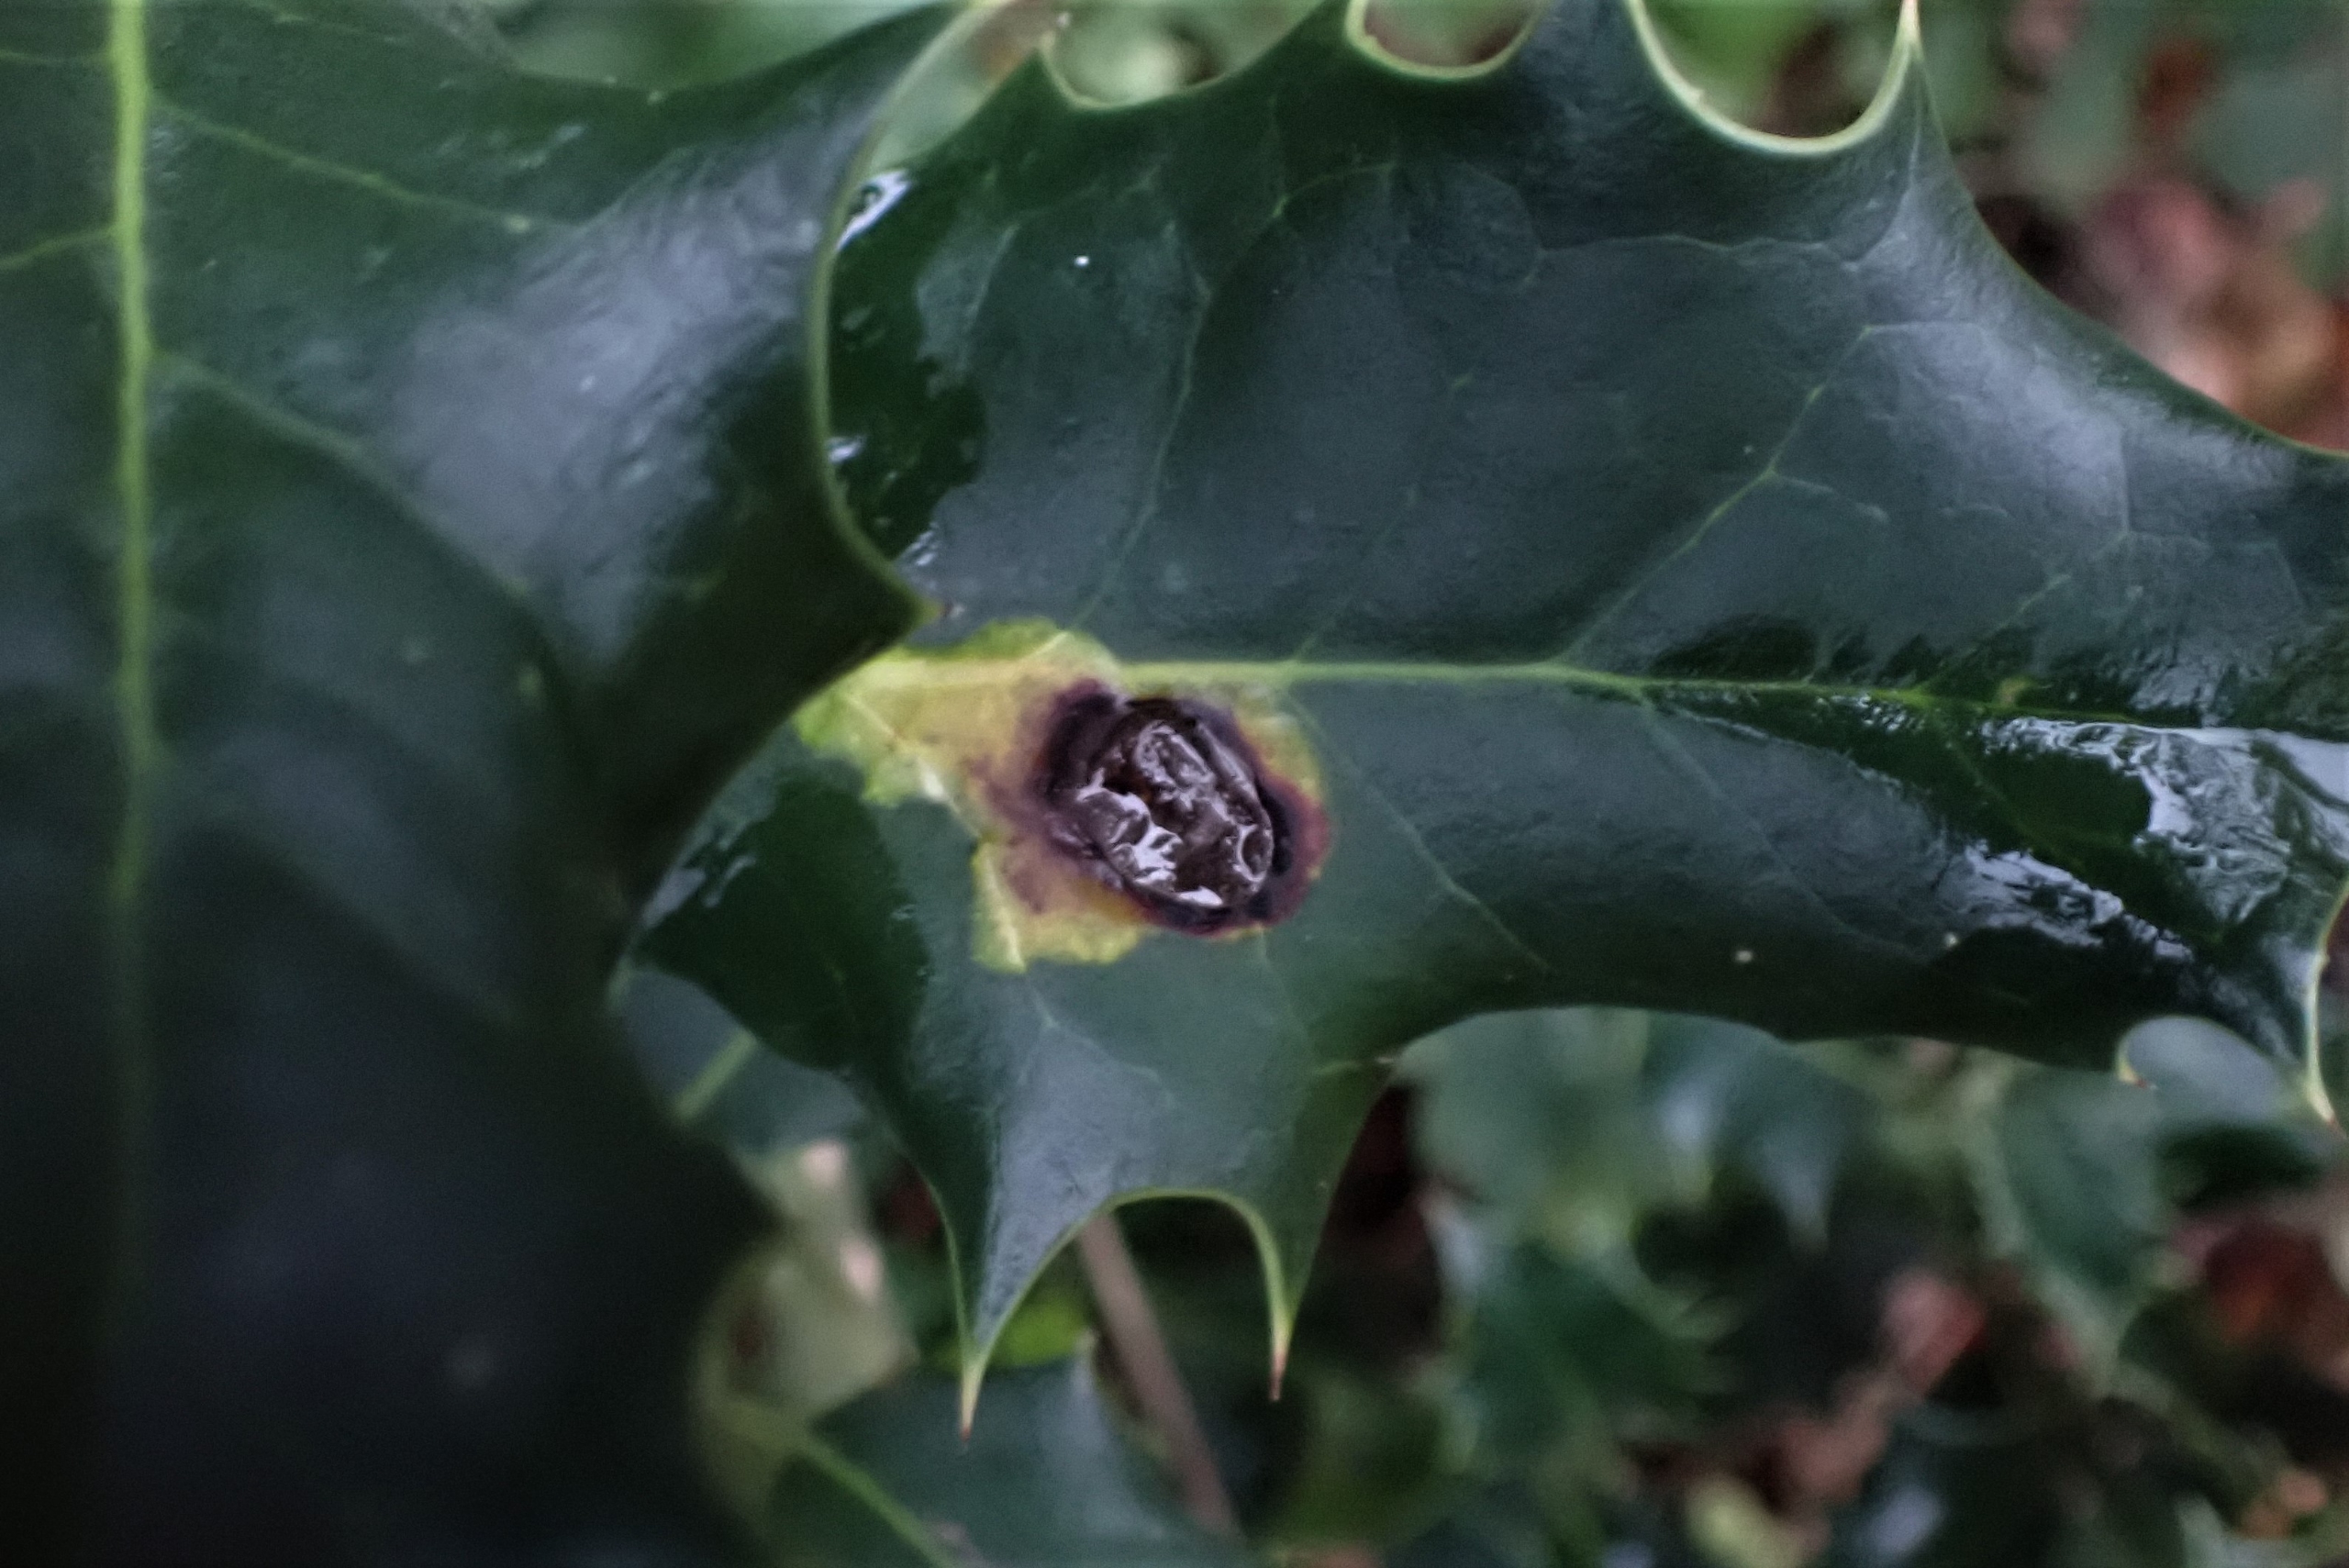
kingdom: Animalia
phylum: Arthropoda
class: Insecta
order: Diptera
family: Agromyzidae
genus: Phytomyza
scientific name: Phytomyza ilicis
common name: Kristtornminérflue
